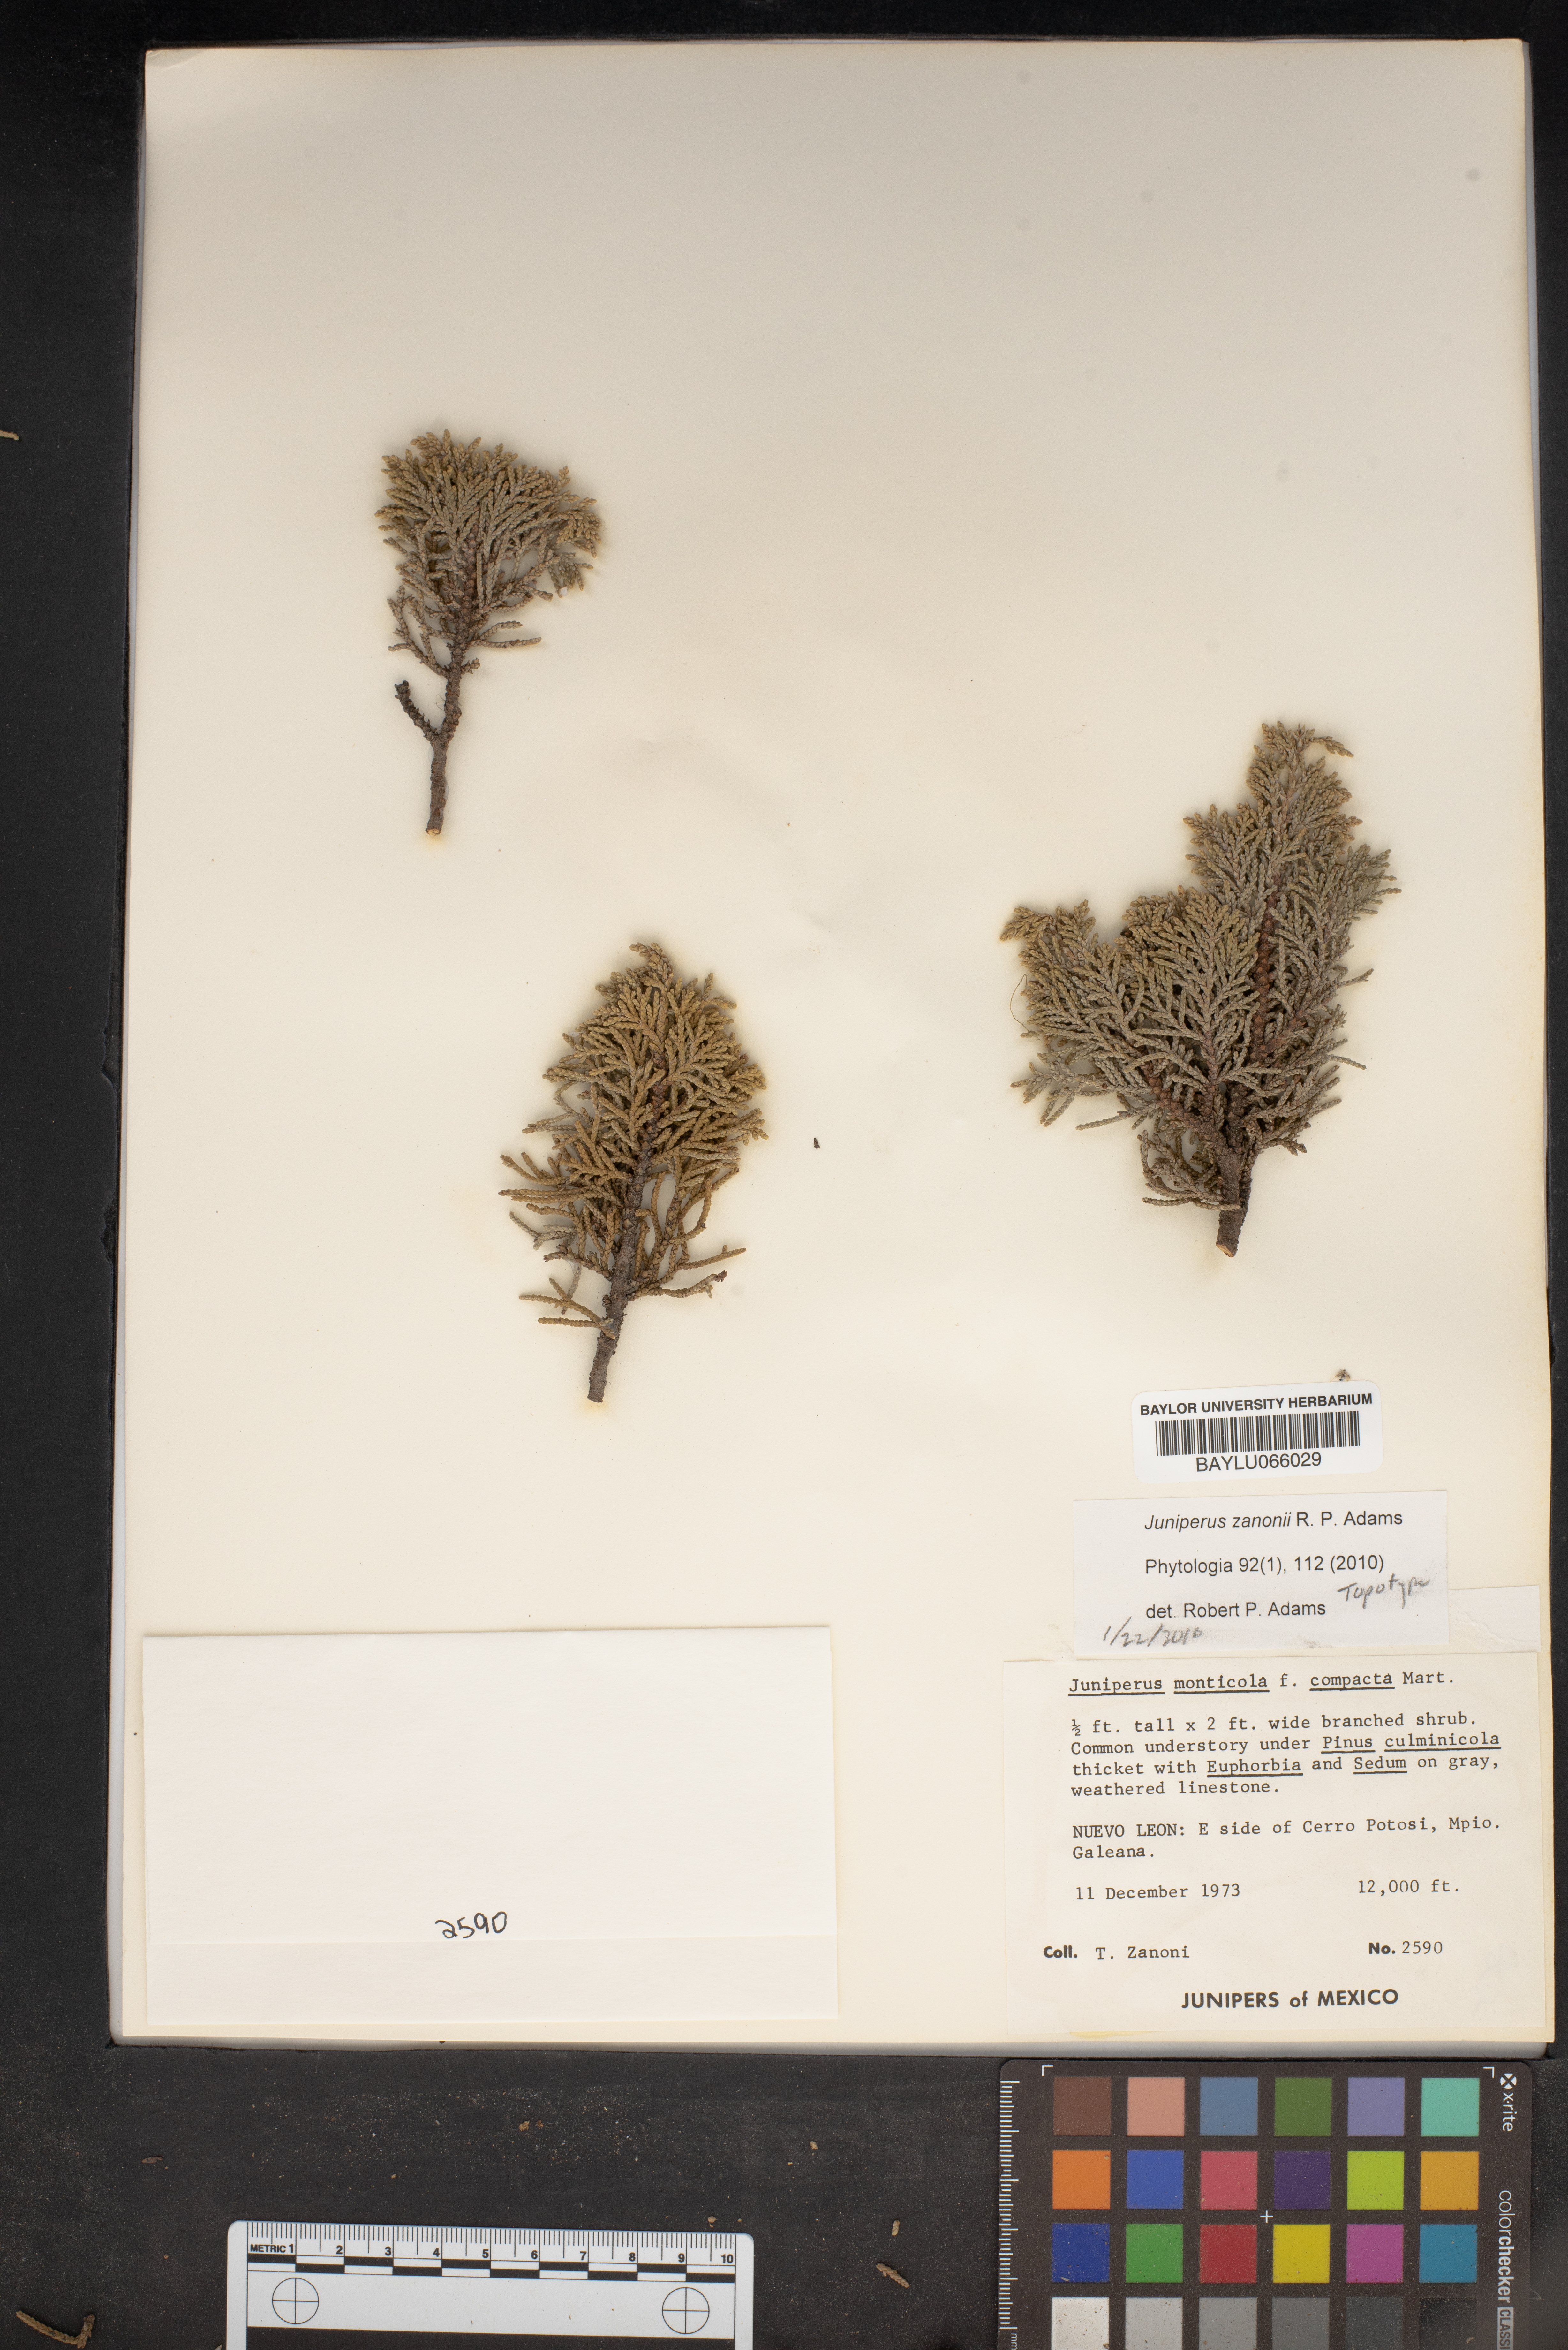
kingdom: Plantae
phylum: Tracheophyta
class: Pinopsida
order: Pinales
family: Cupressaceae
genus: Juniperus
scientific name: Juniperus monticola
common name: Mexican juniper
